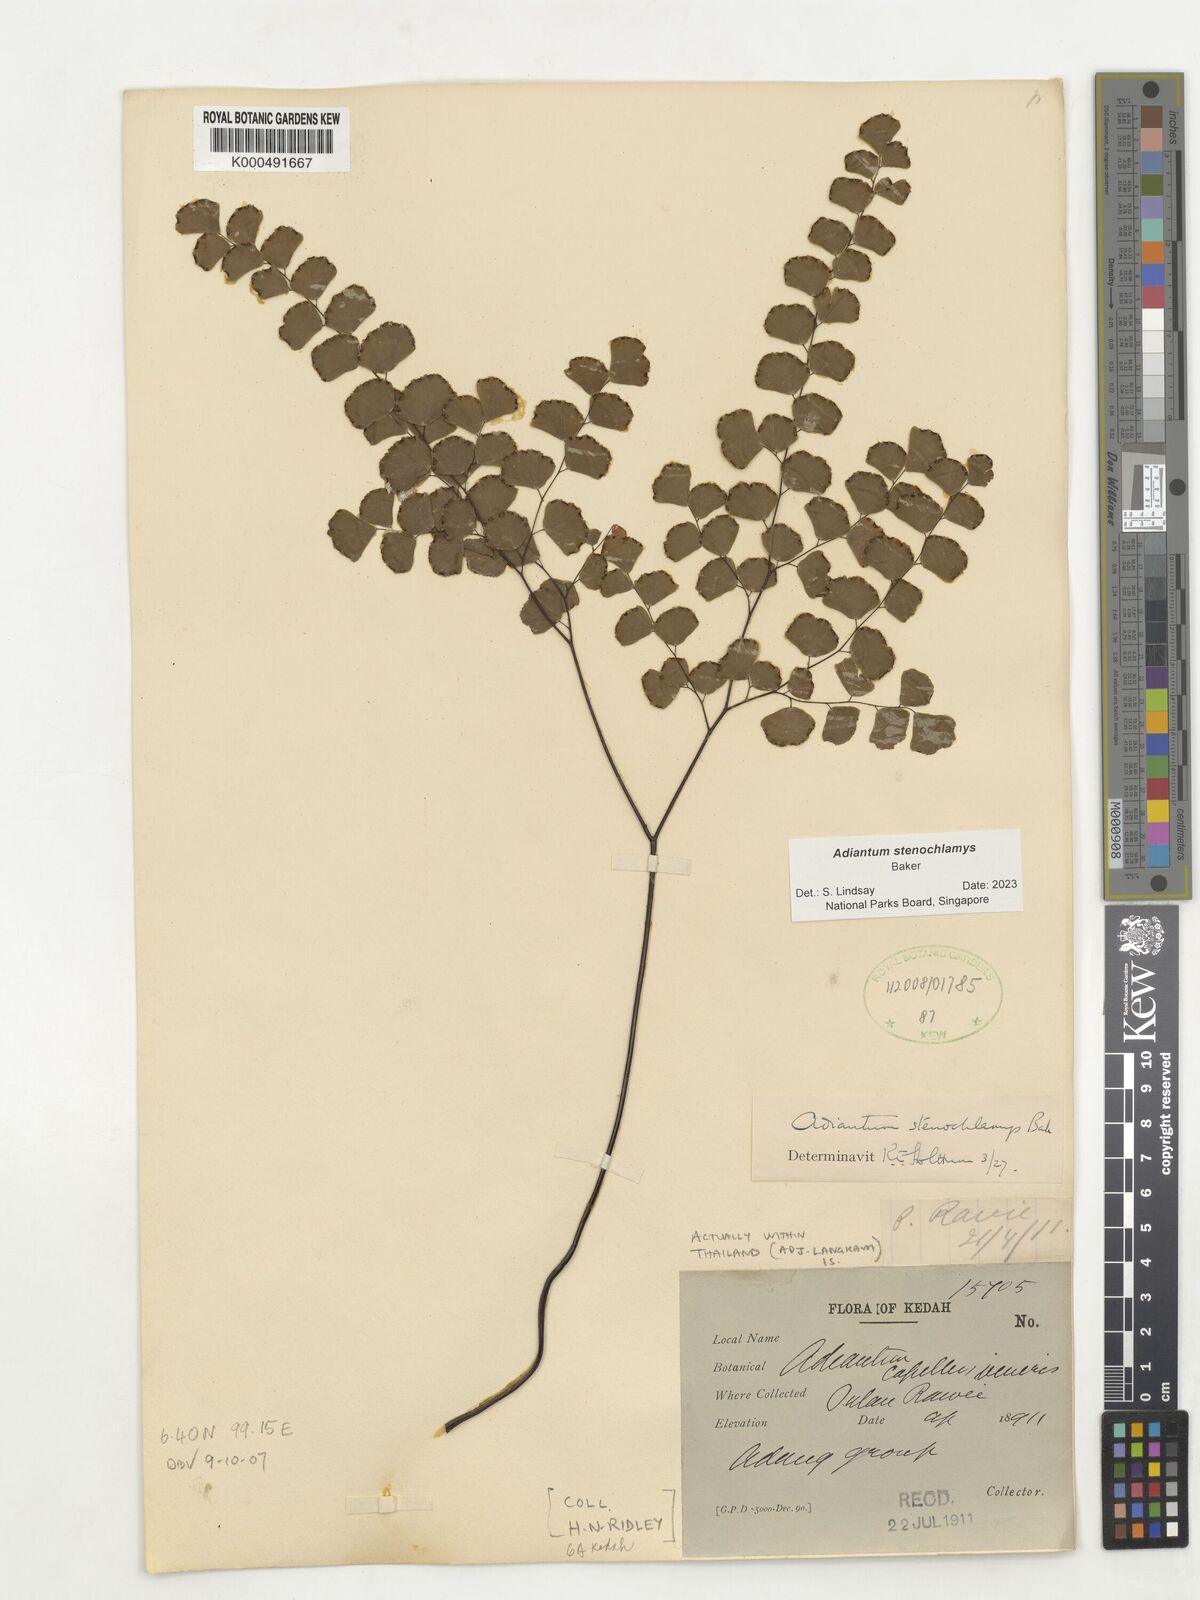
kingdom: Plantae
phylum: Tracheophyta
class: Polypodiopsida
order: Polypodiales
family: Pteridaceae
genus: Adiantum
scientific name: Adiantum stenochlamys
